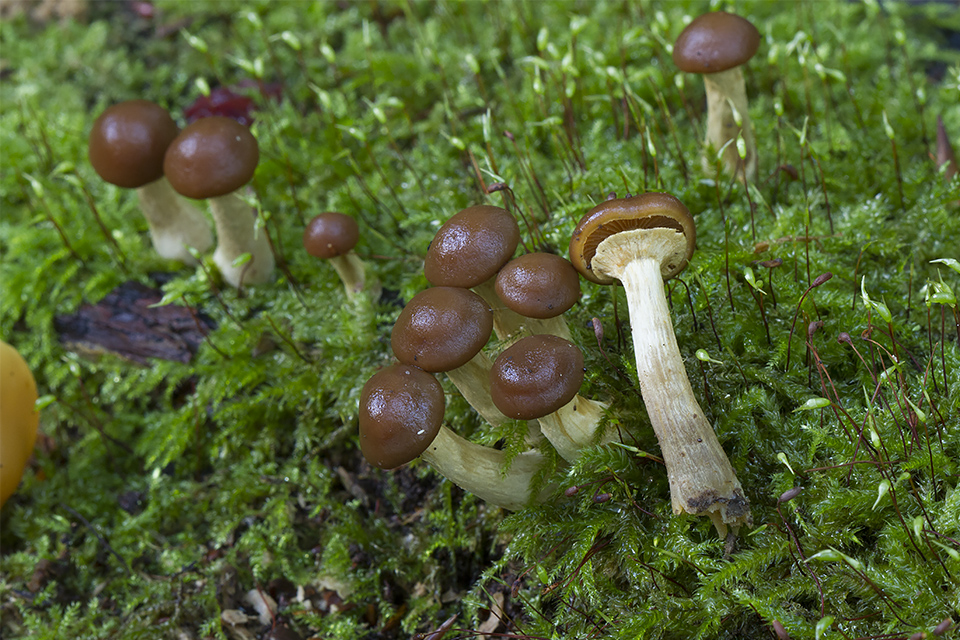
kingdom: Fungi
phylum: Basidiomycota
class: Agaricomycetes
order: Agaricales
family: Hymenogastraceae
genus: Galerina
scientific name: Galerina marginata
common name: randbæltet hjelmhat
